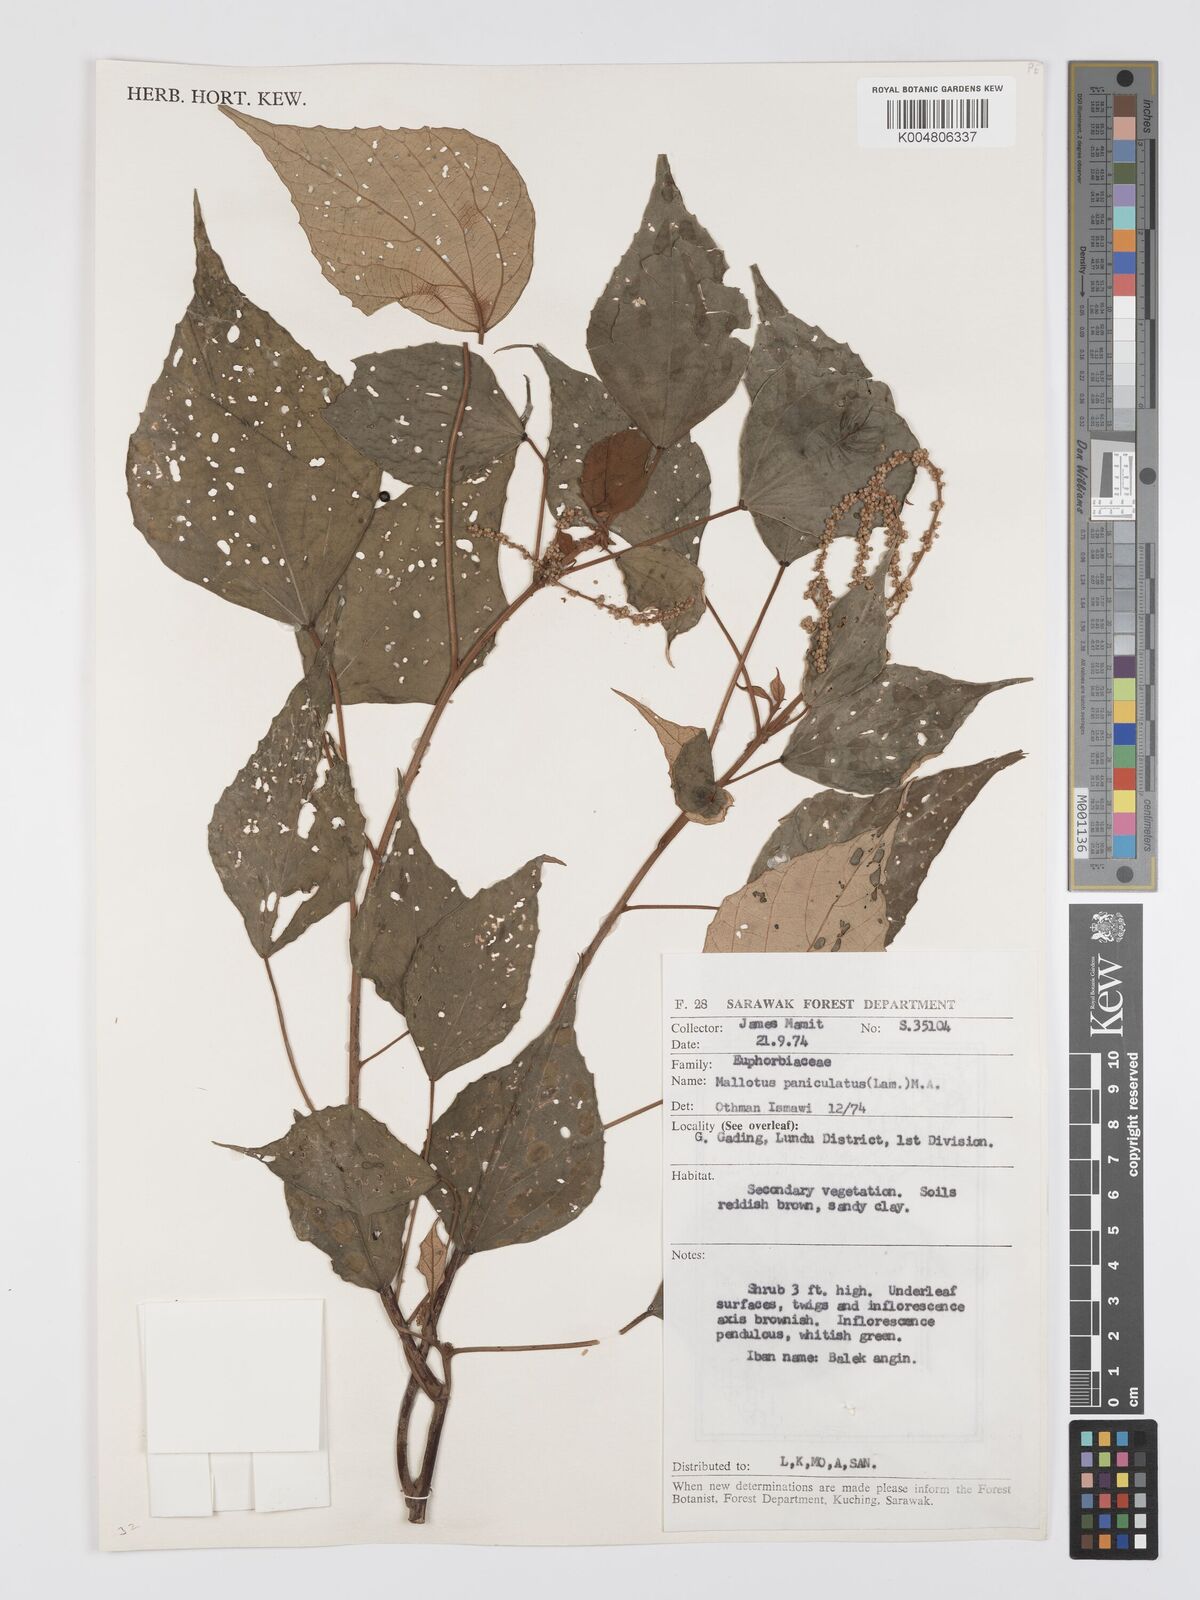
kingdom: Plantae
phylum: Tracheophyta
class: Magnoliopsida
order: Malpighiales
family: Euphorbiaceae
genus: Mallotus
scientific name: Mallotus paniculatus
